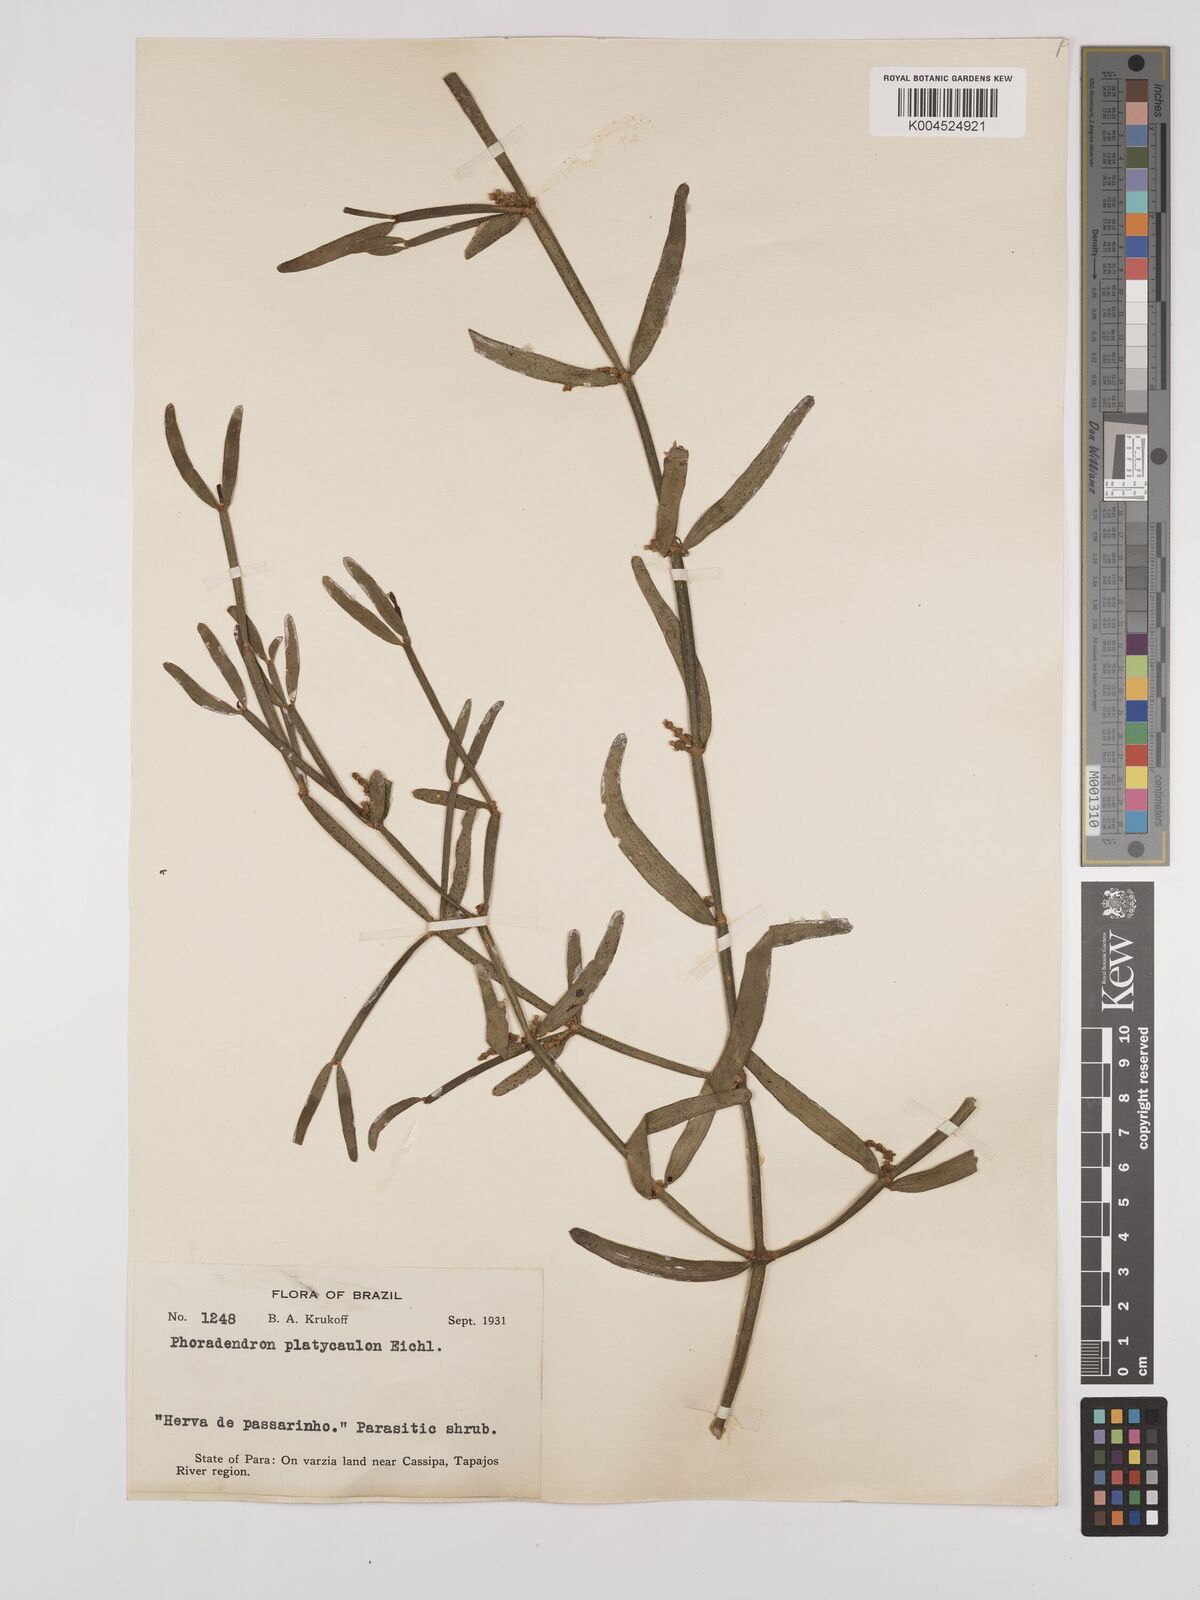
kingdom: Plantae
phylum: Tracheophyta
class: Magnoliopsida
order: Santalales
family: Viscaceae
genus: Phoradendron
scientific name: Phoradendron planiphyllum
